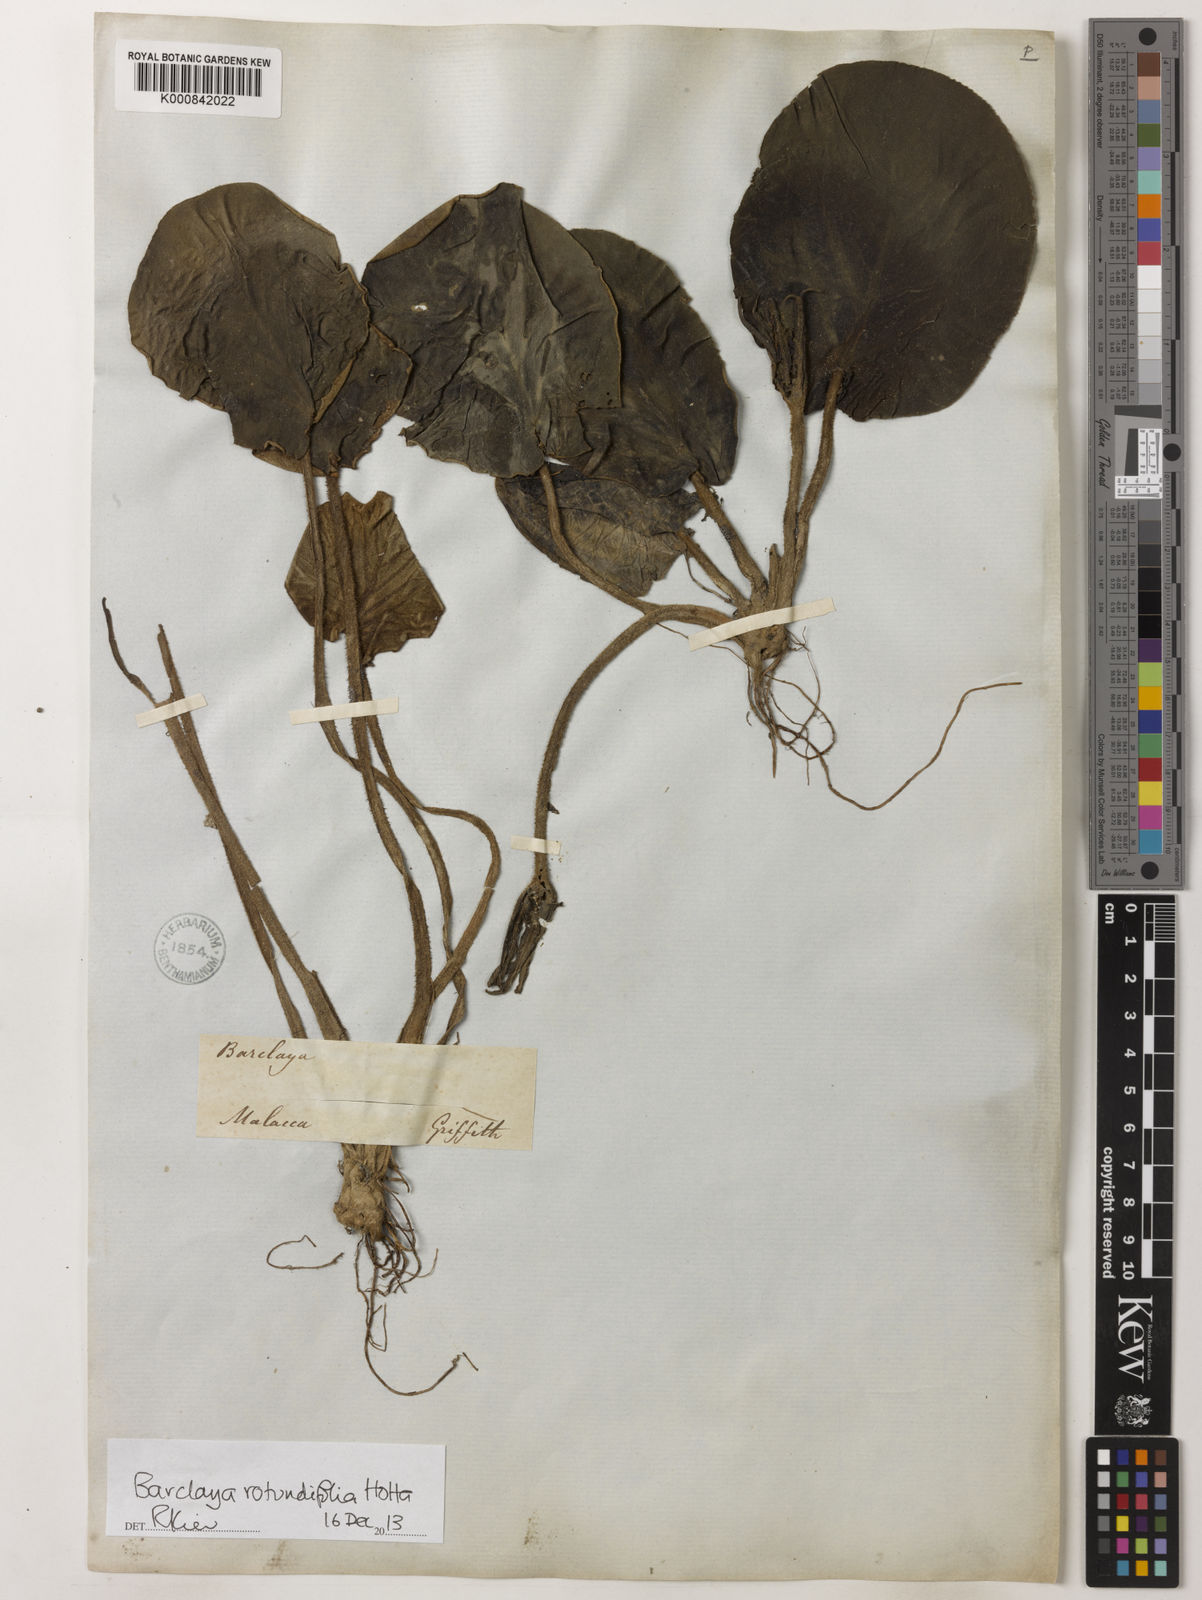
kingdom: Plantae
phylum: Tracheophyta
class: Magnoliopsida
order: Nymphaeales
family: Nymphaeaceae
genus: Barclaya
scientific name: Barclaya rotundifolia
